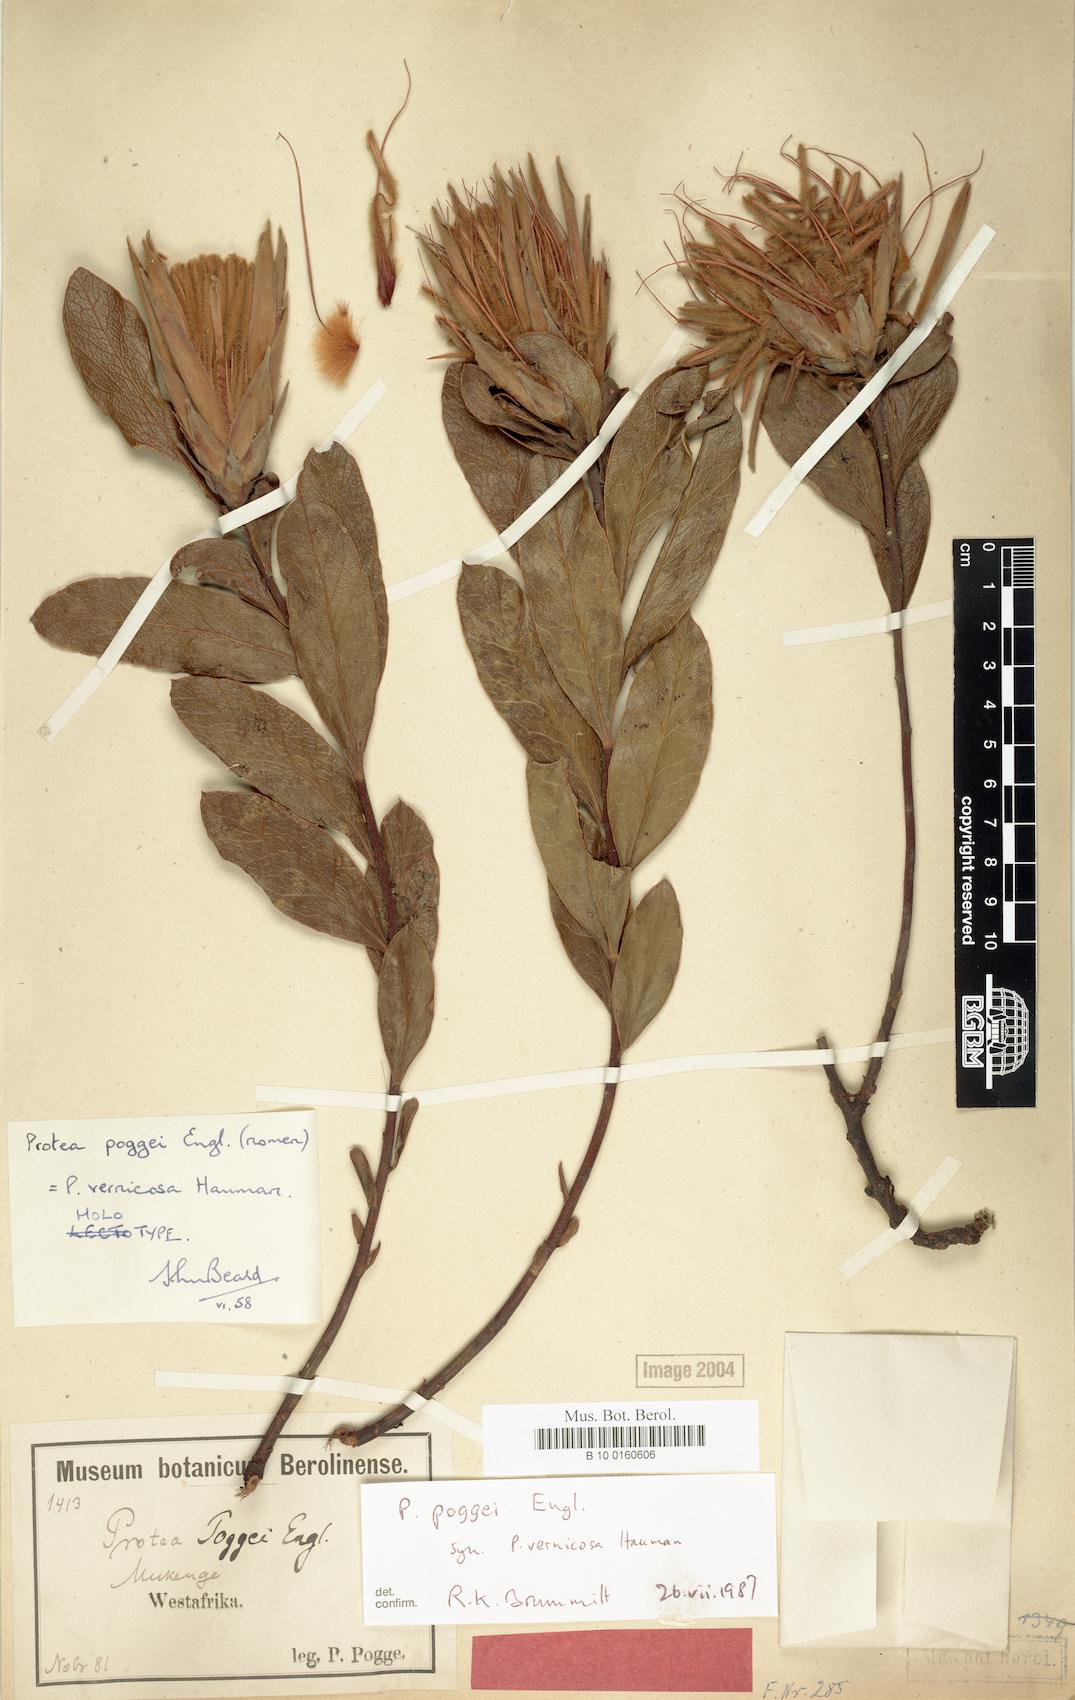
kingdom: Plantae
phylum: Tracheophyta
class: Magnoliopsida
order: Proteales
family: Proteaceae
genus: Protea
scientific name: Protea poggei
